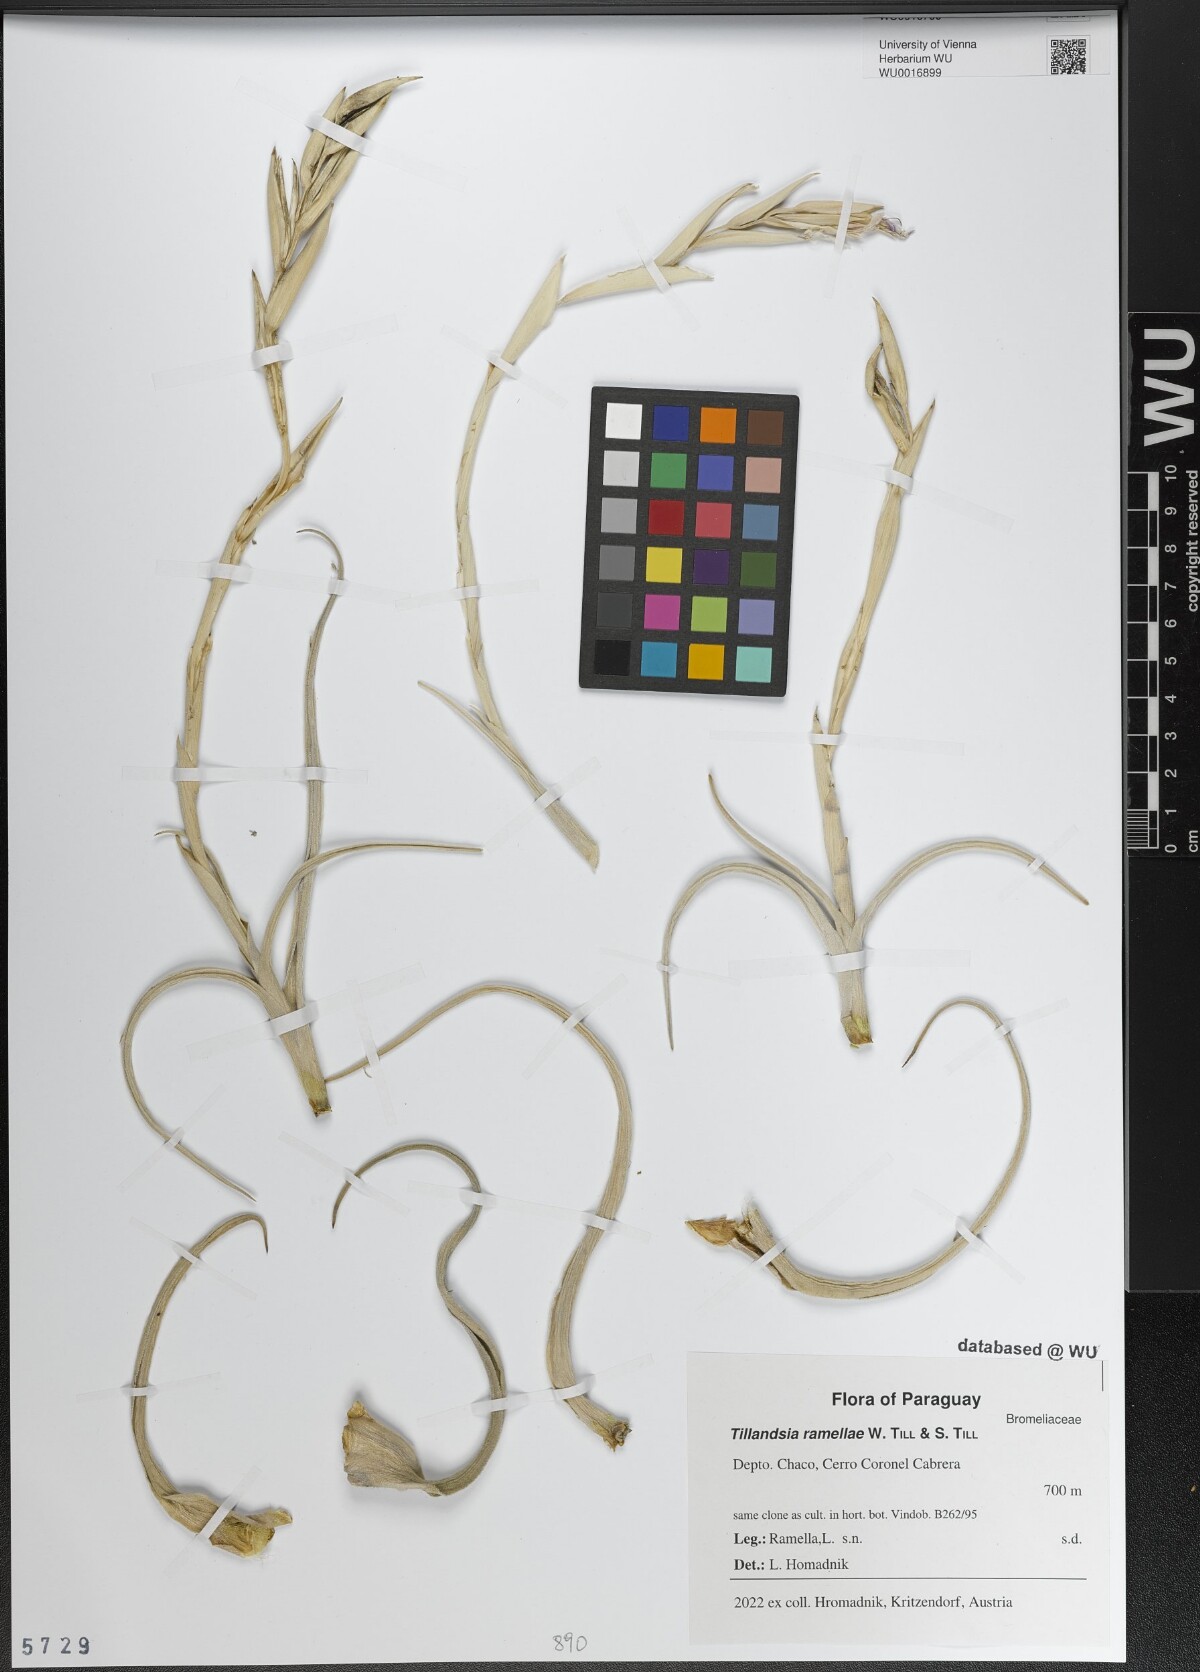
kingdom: Plantae
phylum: Tracheophyta
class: Liliopsida
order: Poales
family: Bromeliaceae
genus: Tillandsia
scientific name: Tillandsia ramellae
